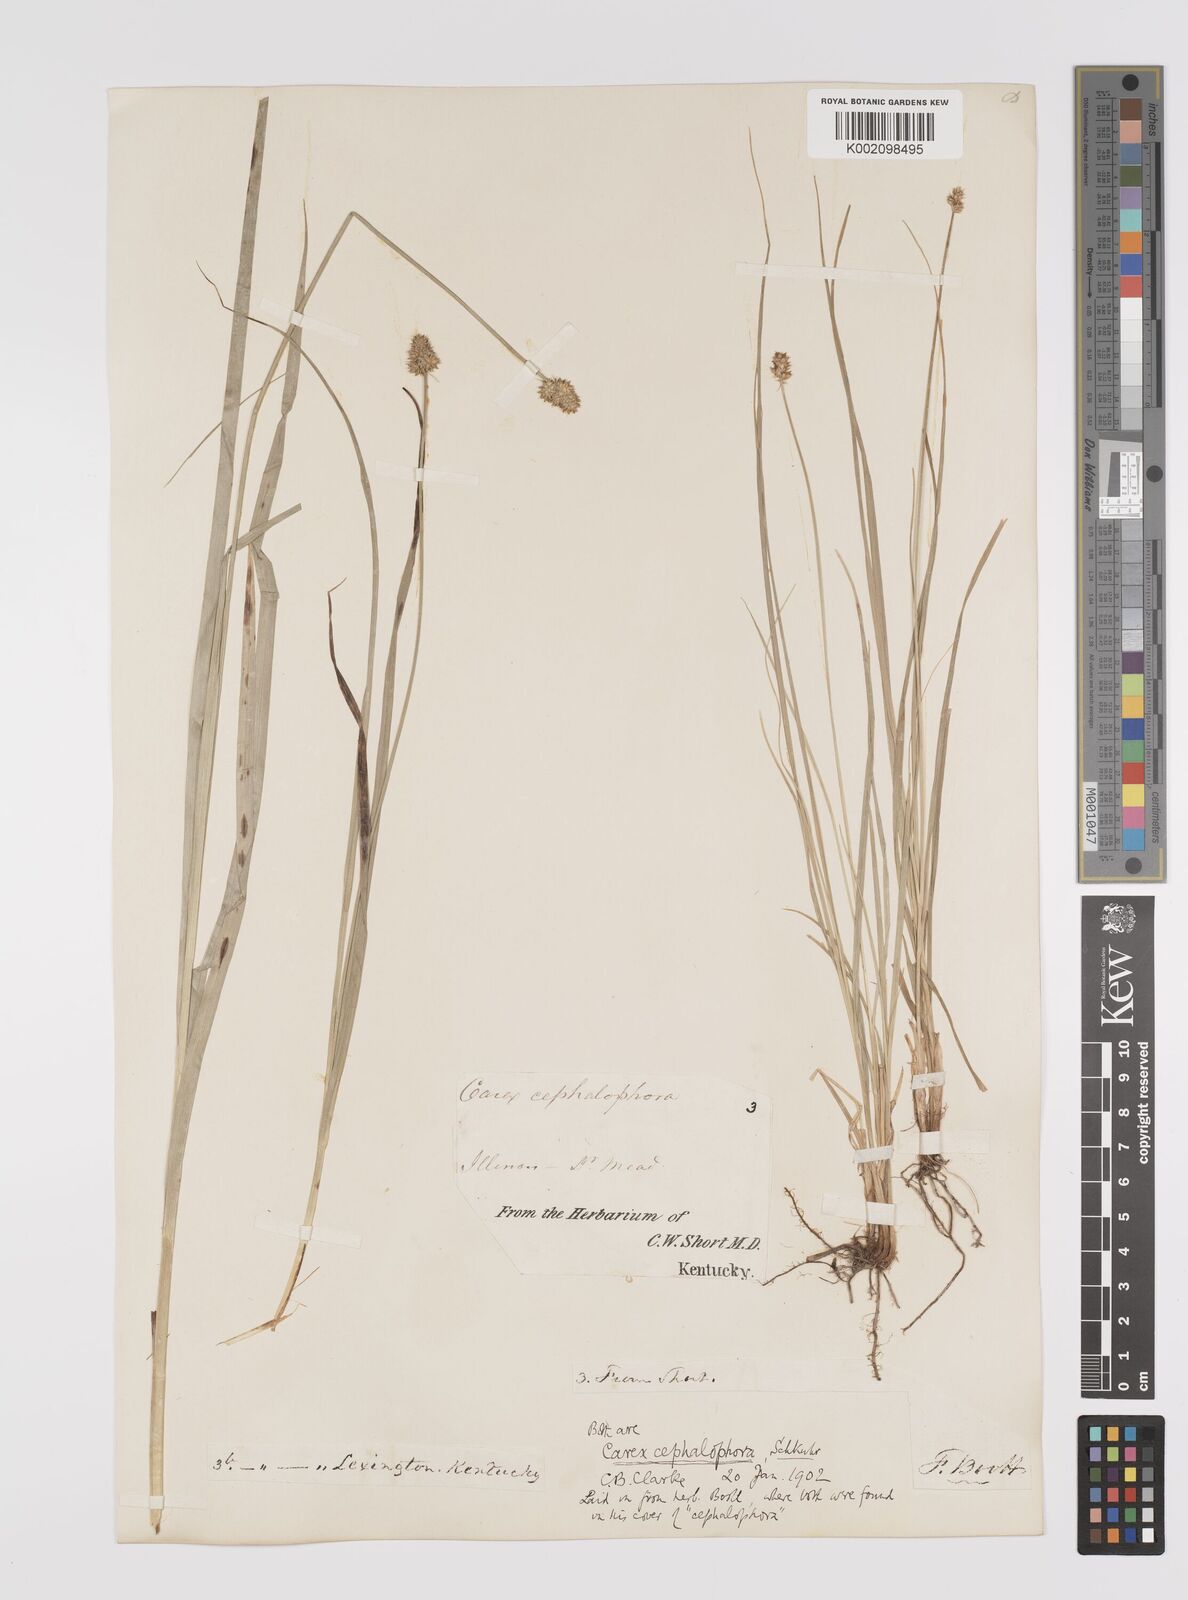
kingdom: Plantae
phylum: Tracheophyta
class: Liliopsida
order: Poales
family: Cyperaceae
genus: Carex
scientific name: Carex cephalophora
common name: Oval-headed sedge
